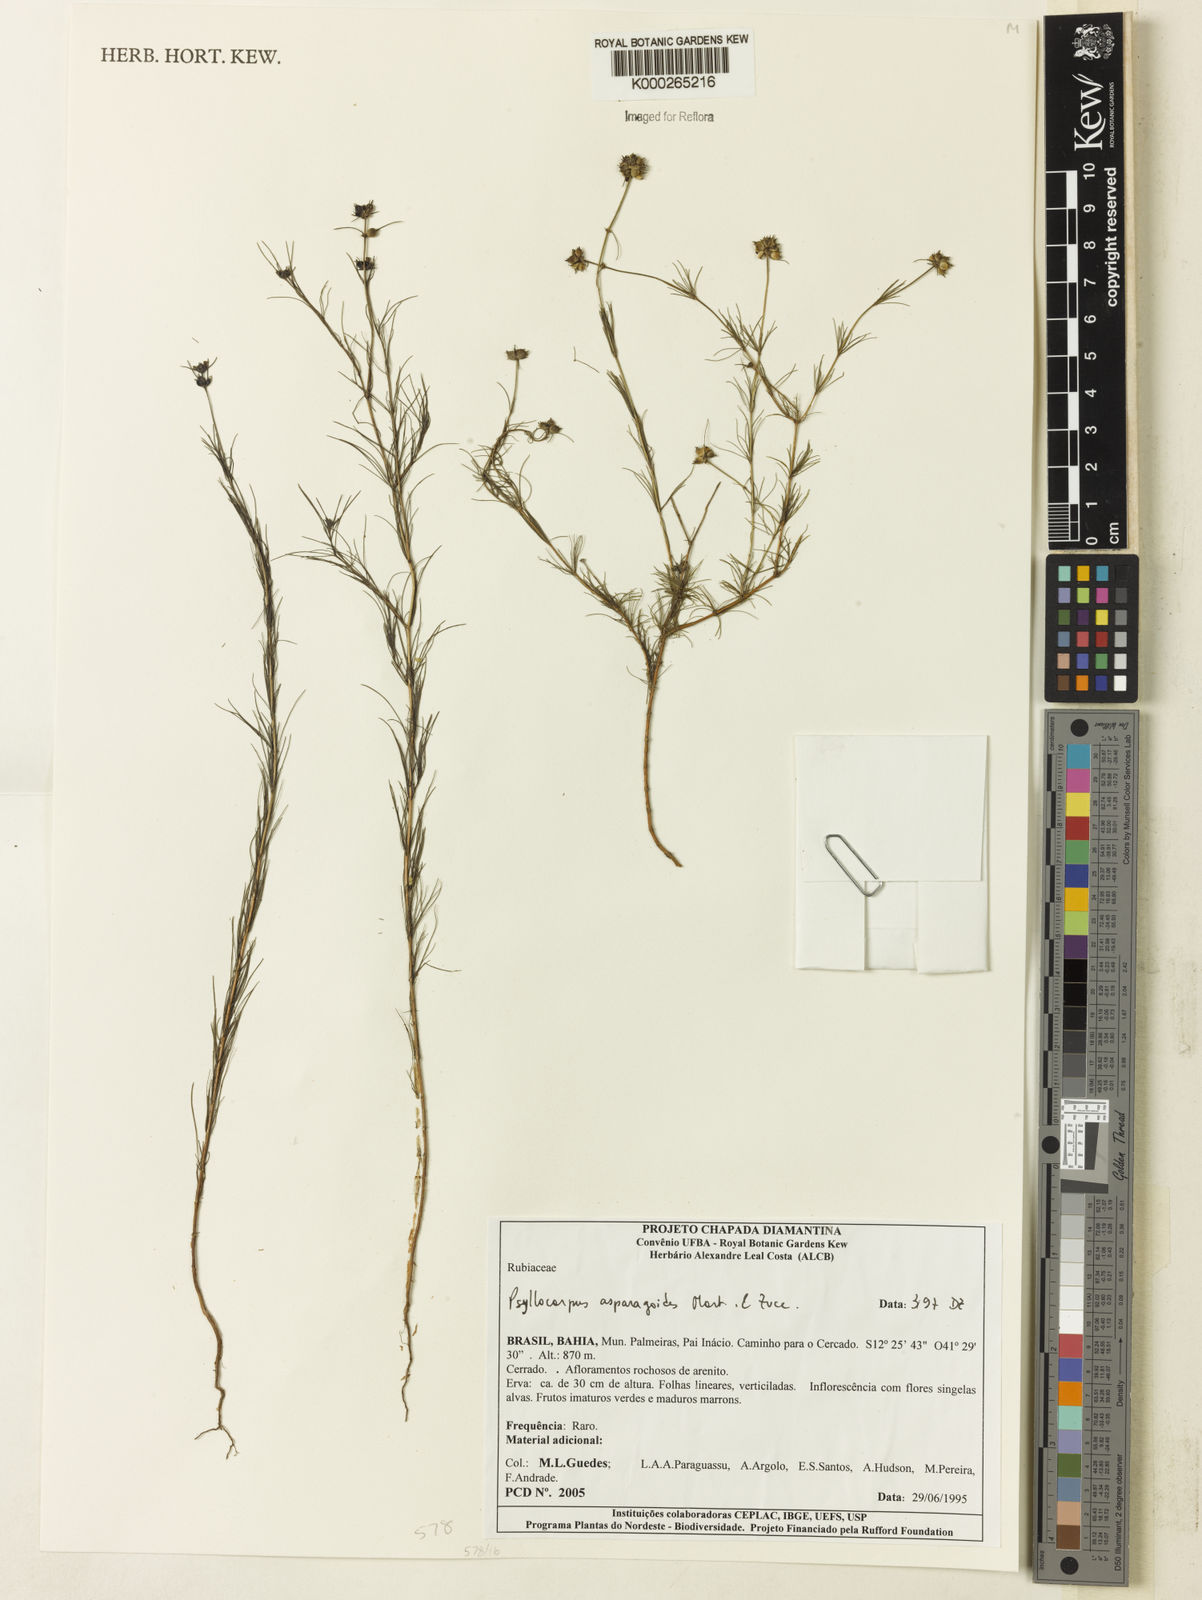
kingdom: Plantae
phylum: Tracheophyta
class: Magnoliopsida
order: Gentianales
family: Rubiaceae
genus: Psyllocarpus
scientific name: Psyllocarpus asparagoides
